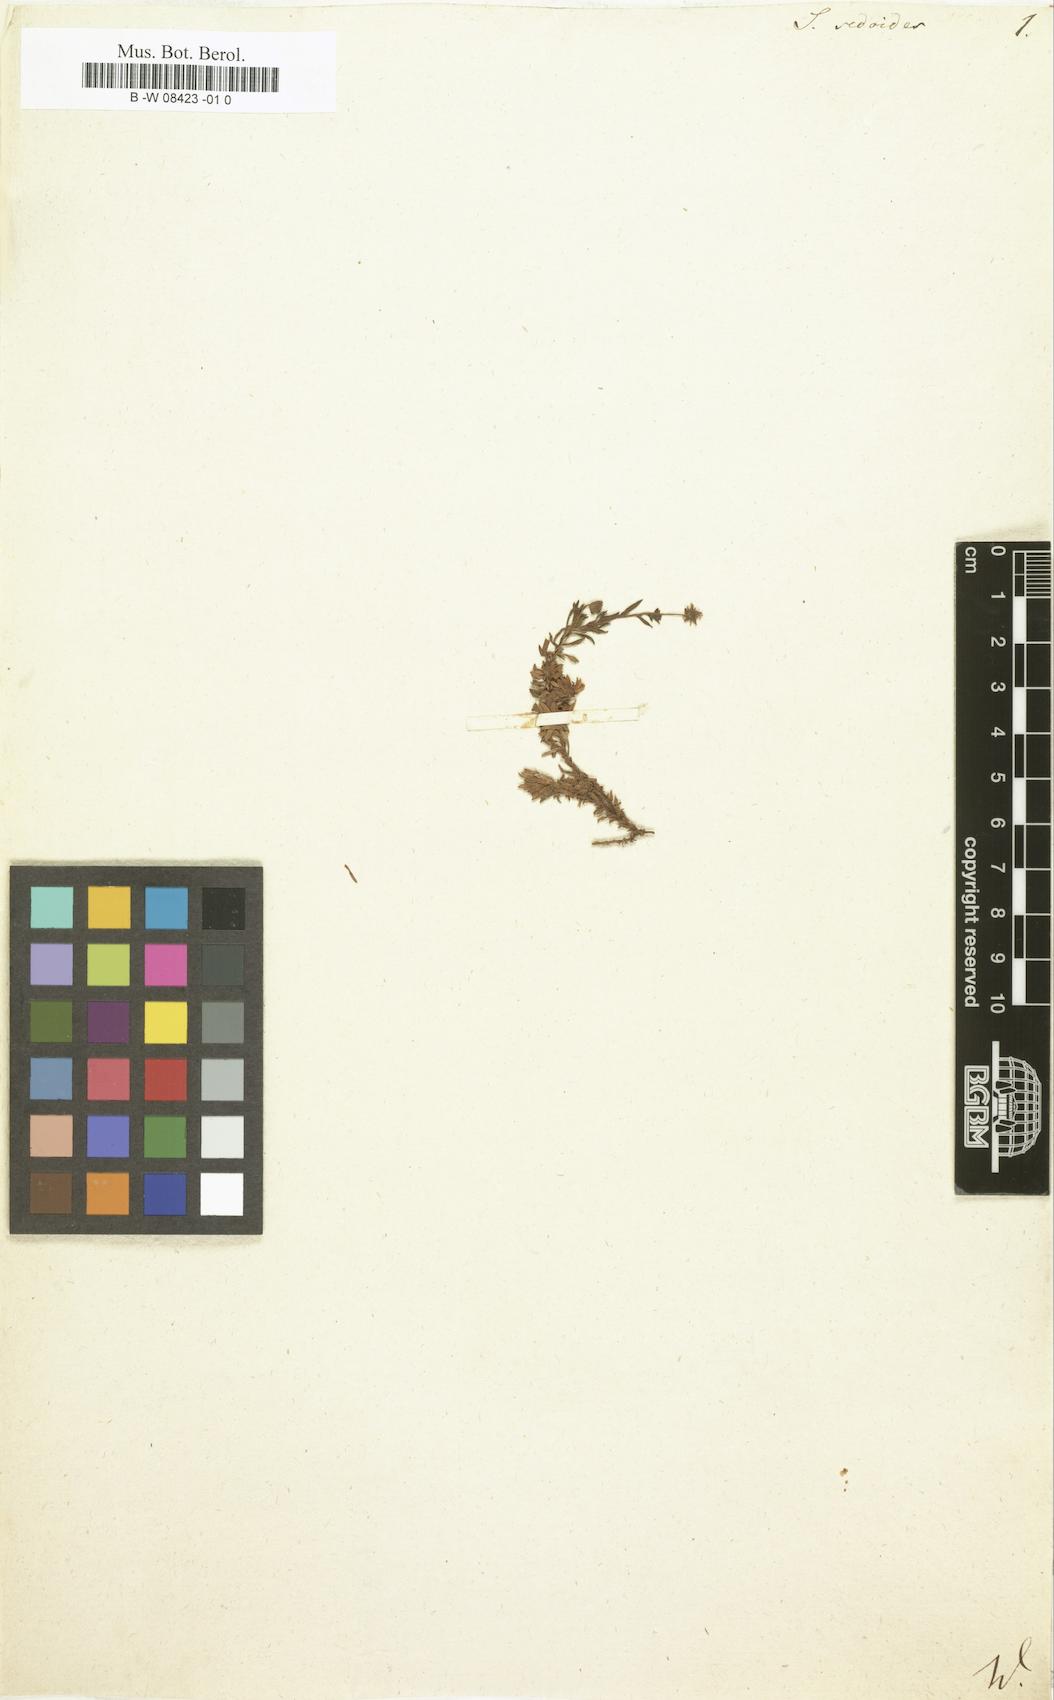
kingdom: Plantae
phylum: Tracheophyta
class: Magnoliopsida
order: Saxifragales
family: Saxifragaceae
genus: Saxifraga
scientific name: Saxifraga sedoides
